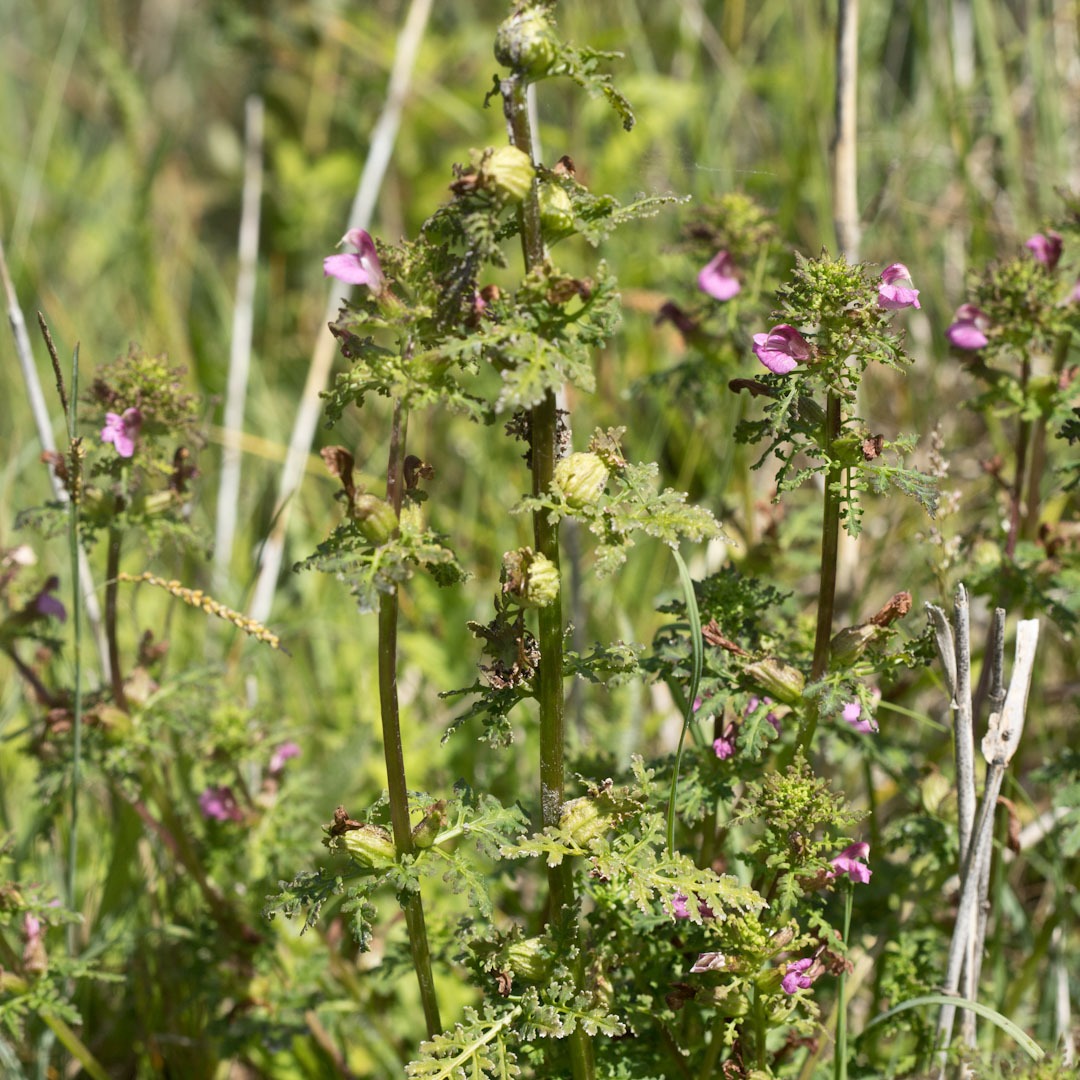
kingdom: Plantae
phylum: Tracheophyta
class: Magnoliopsida
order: Lamiales
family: Orobanchaceae
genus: Pedicularis
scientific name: Pedicularis palustris
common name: Eng-troldurt
